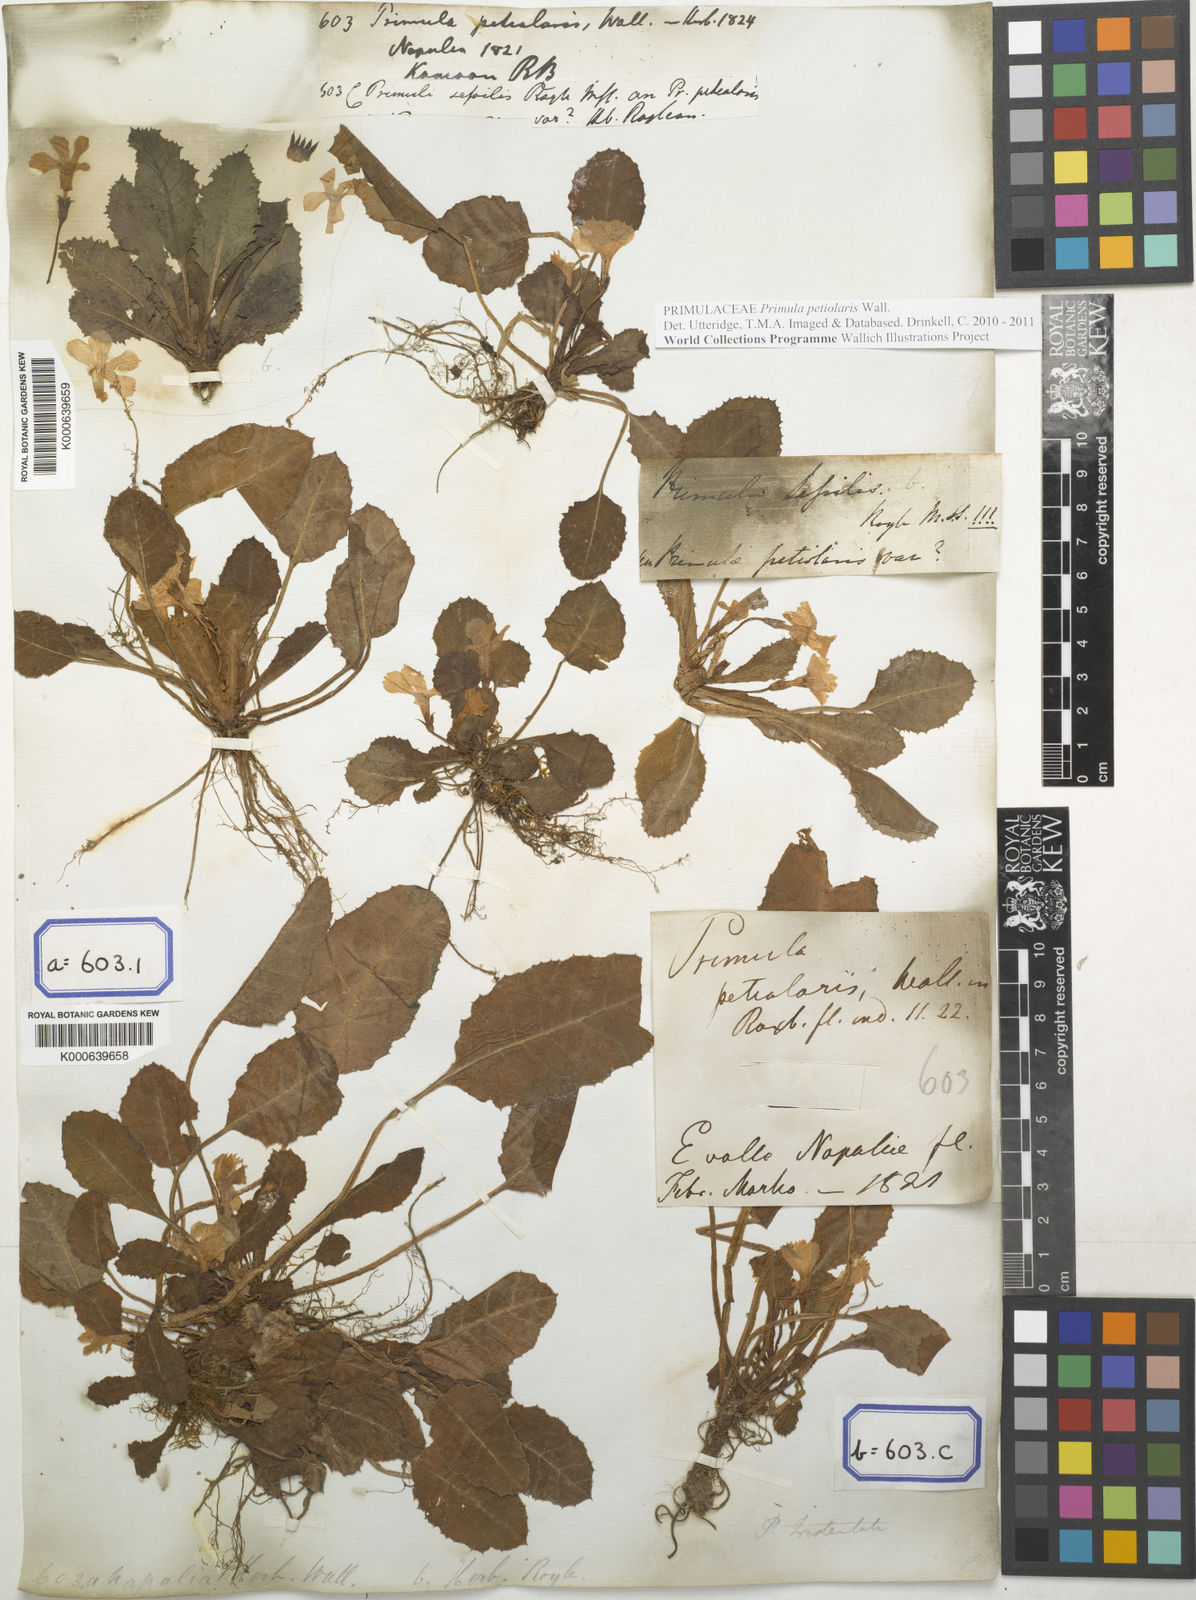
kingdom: Plantae
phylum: Tracheophyta
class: Magnoliopsida
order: Ericales
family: Primulaceae
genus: Primula
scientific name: Primula
